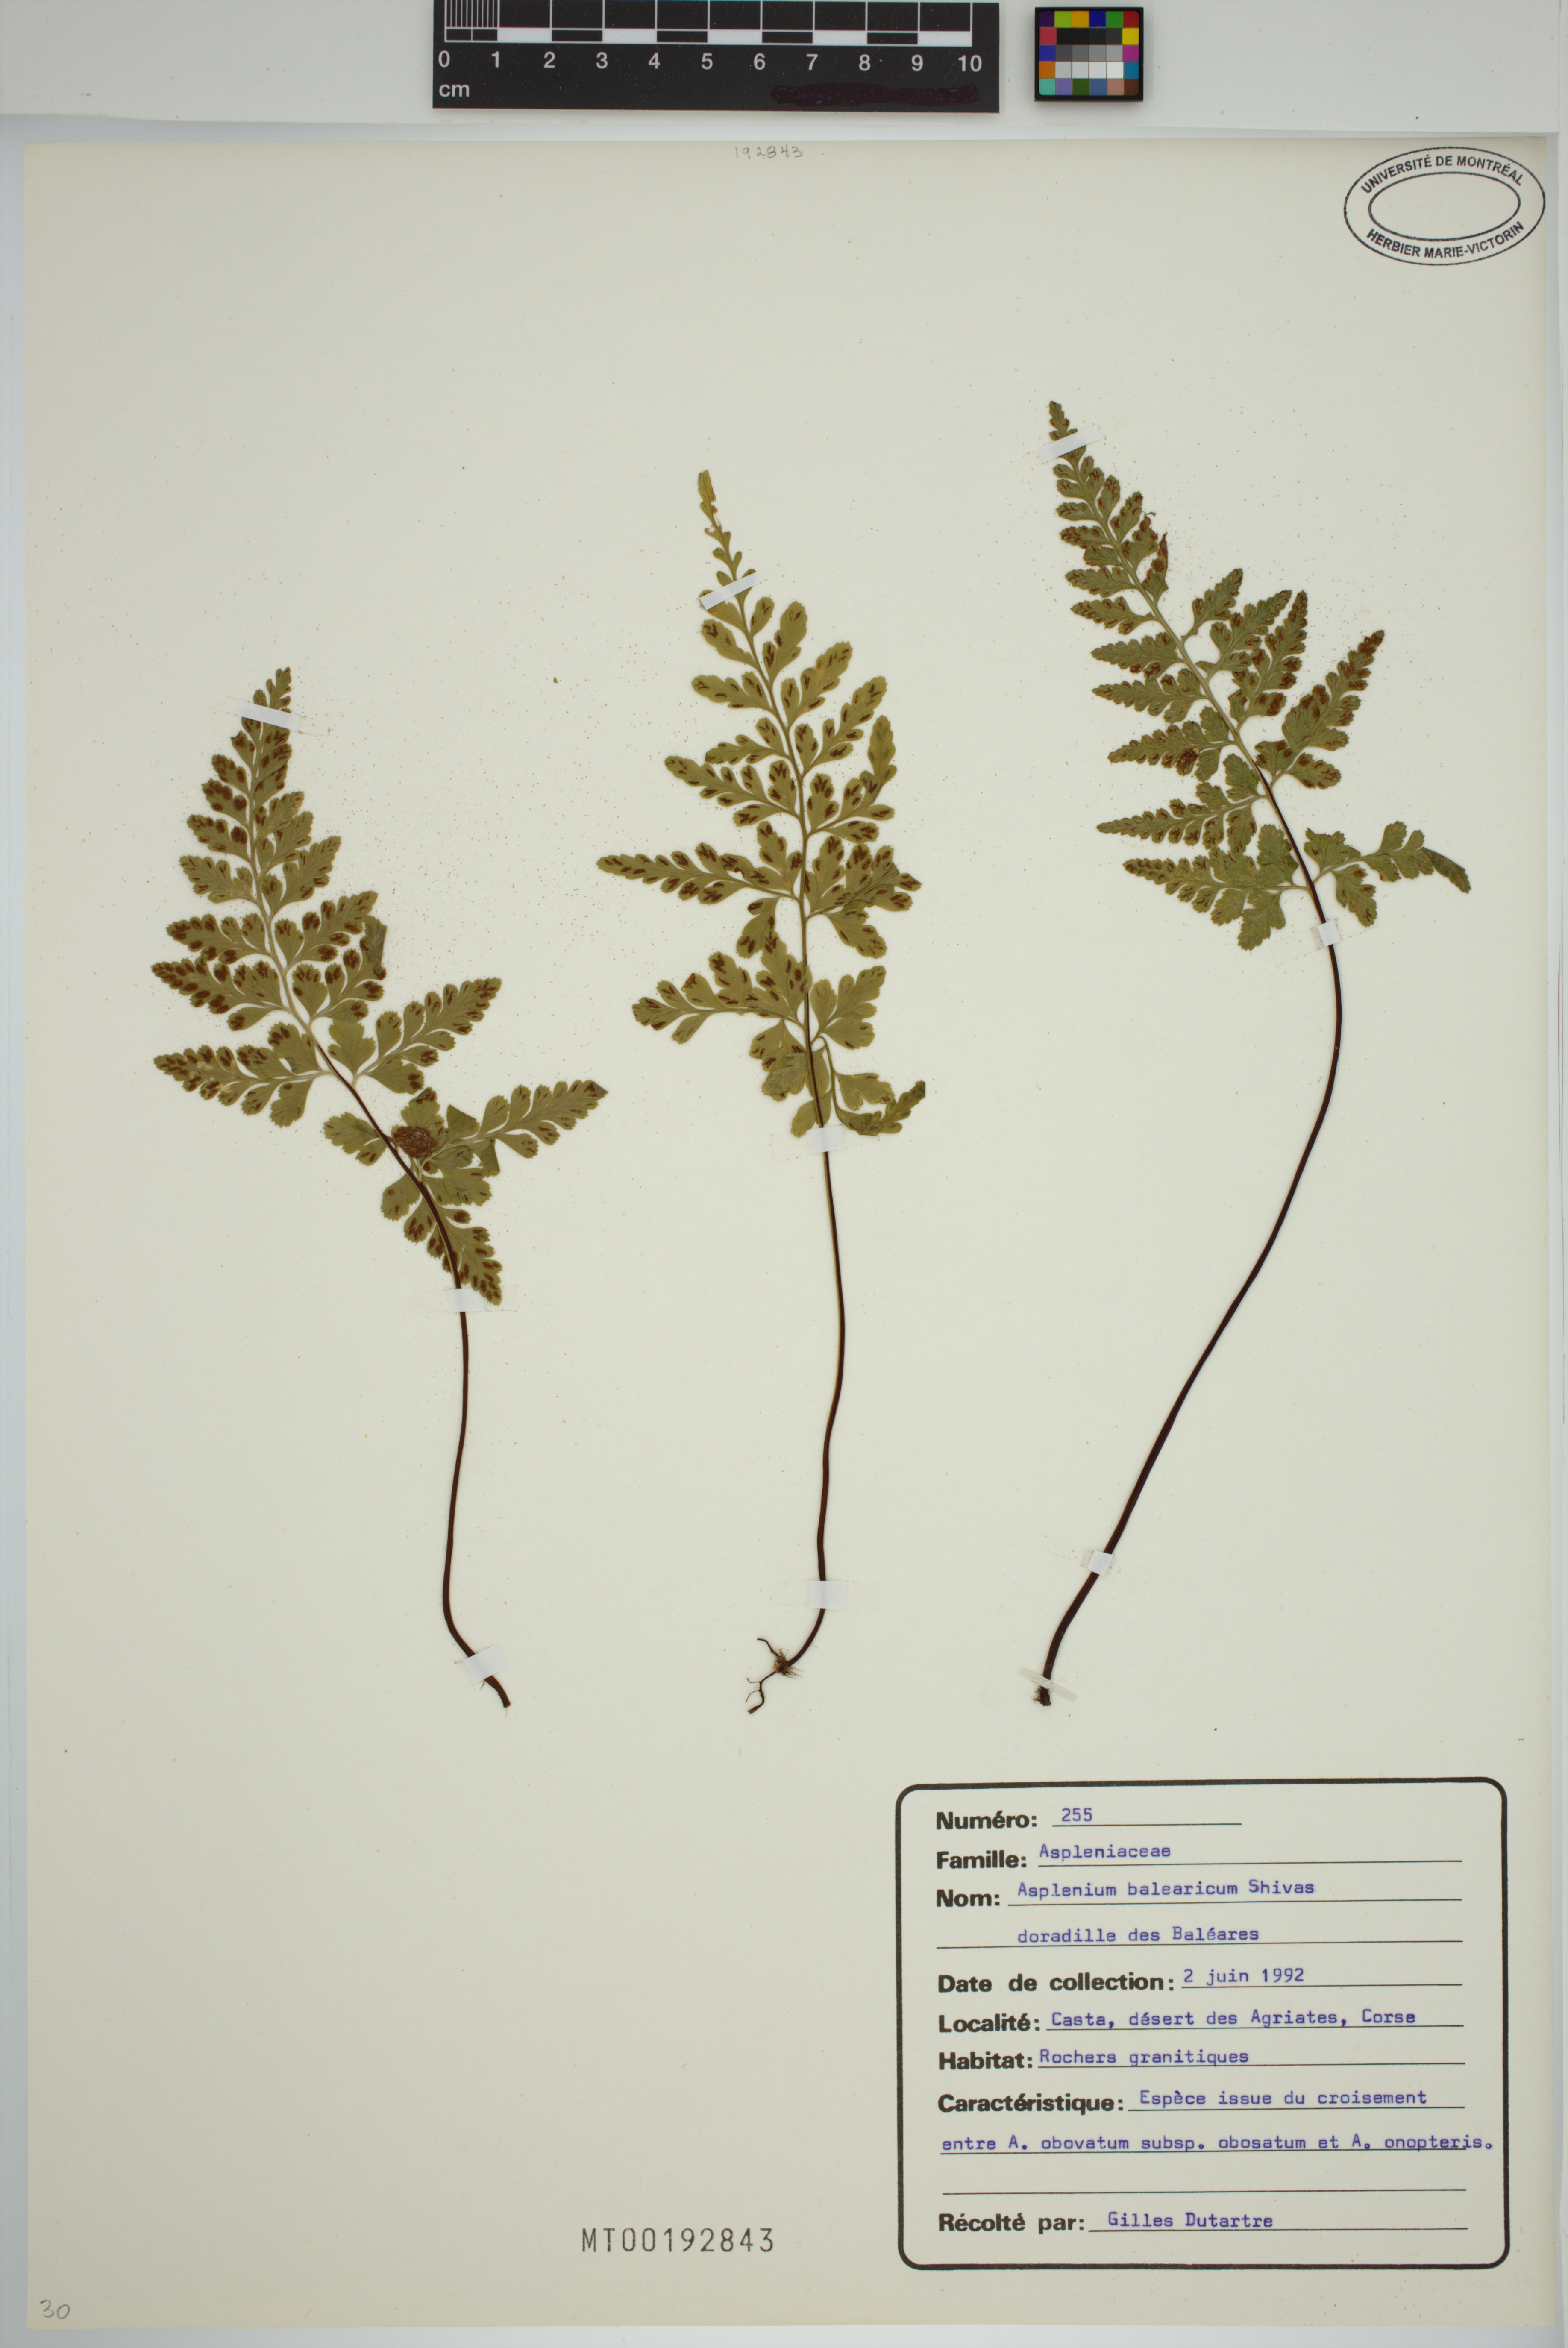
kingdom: Plantae
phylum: Tracheophyta
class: Polypodiopsida
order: Polypodiales
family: Aspleniaceae
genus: Asplenium
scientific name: Asplenium balearicum
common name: Balearean spleenwort
